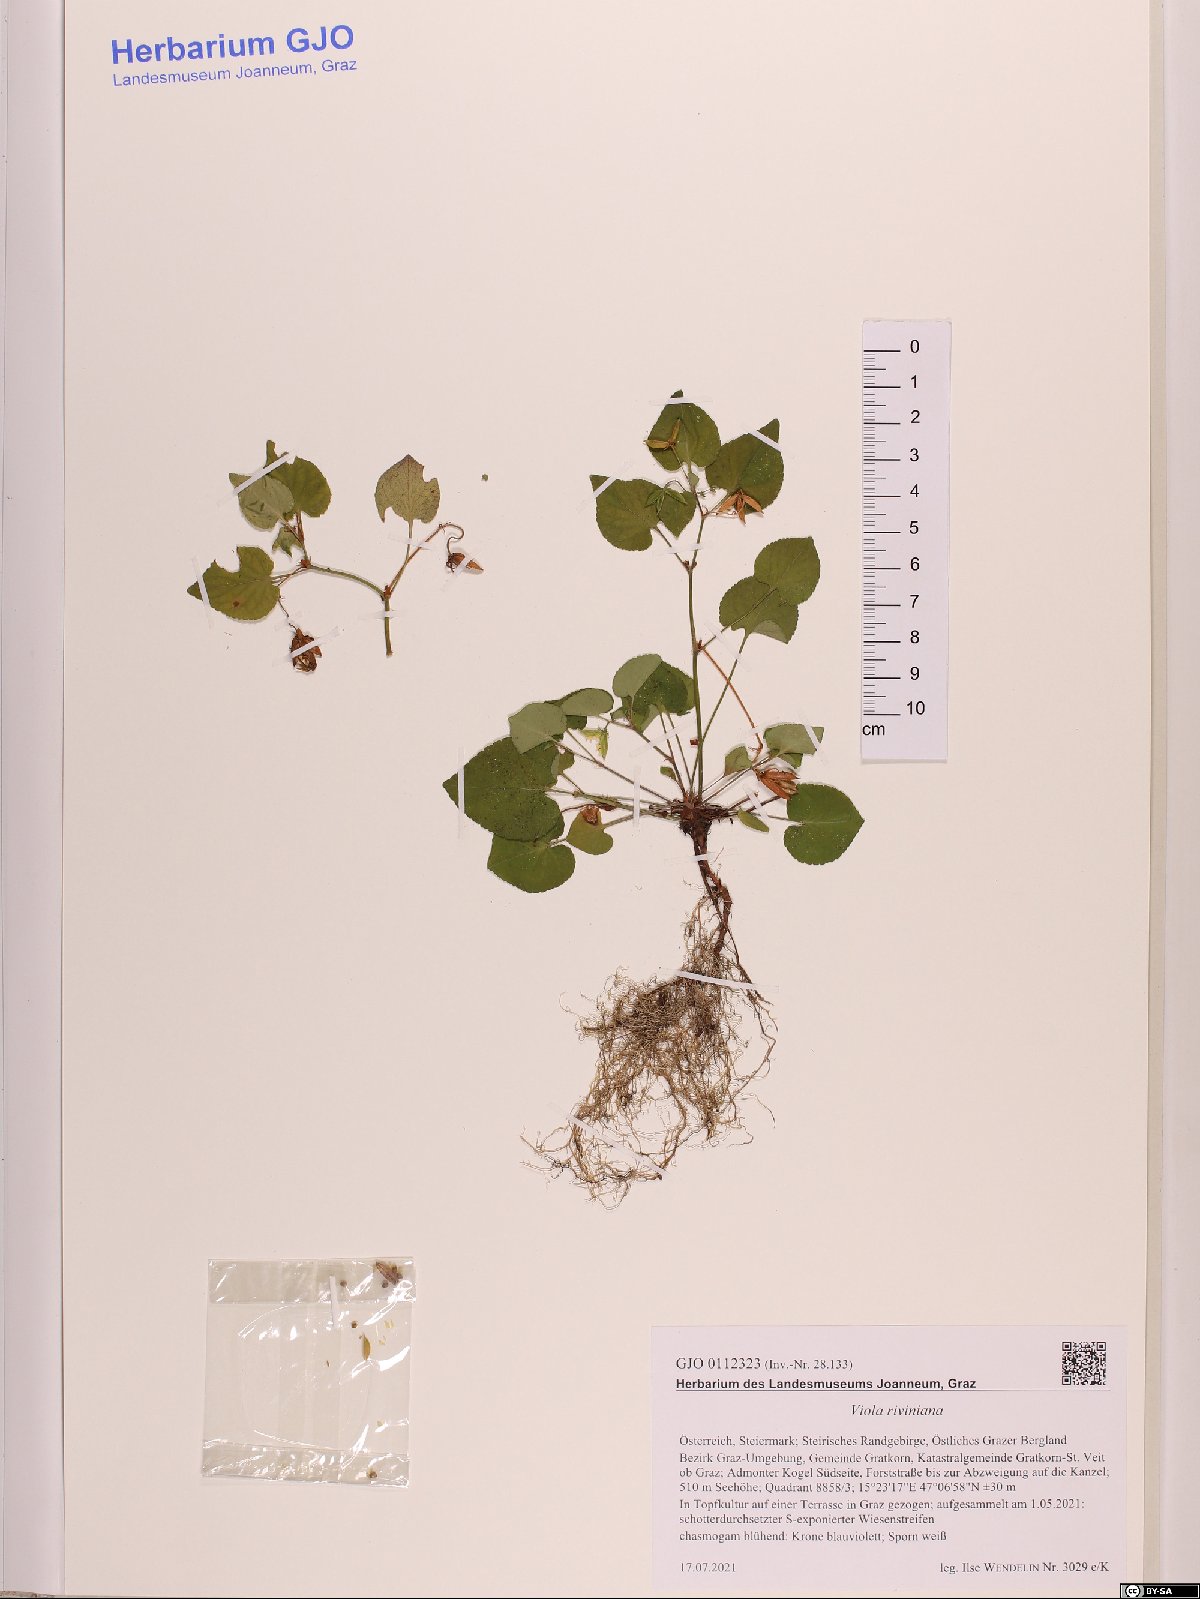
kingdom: Plantae
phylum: Tracheophyta
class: Magnoliopsida
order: Malpighiales
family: Violaceae
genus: Viola
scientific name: Viola riviniana
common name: Common dog-violet
